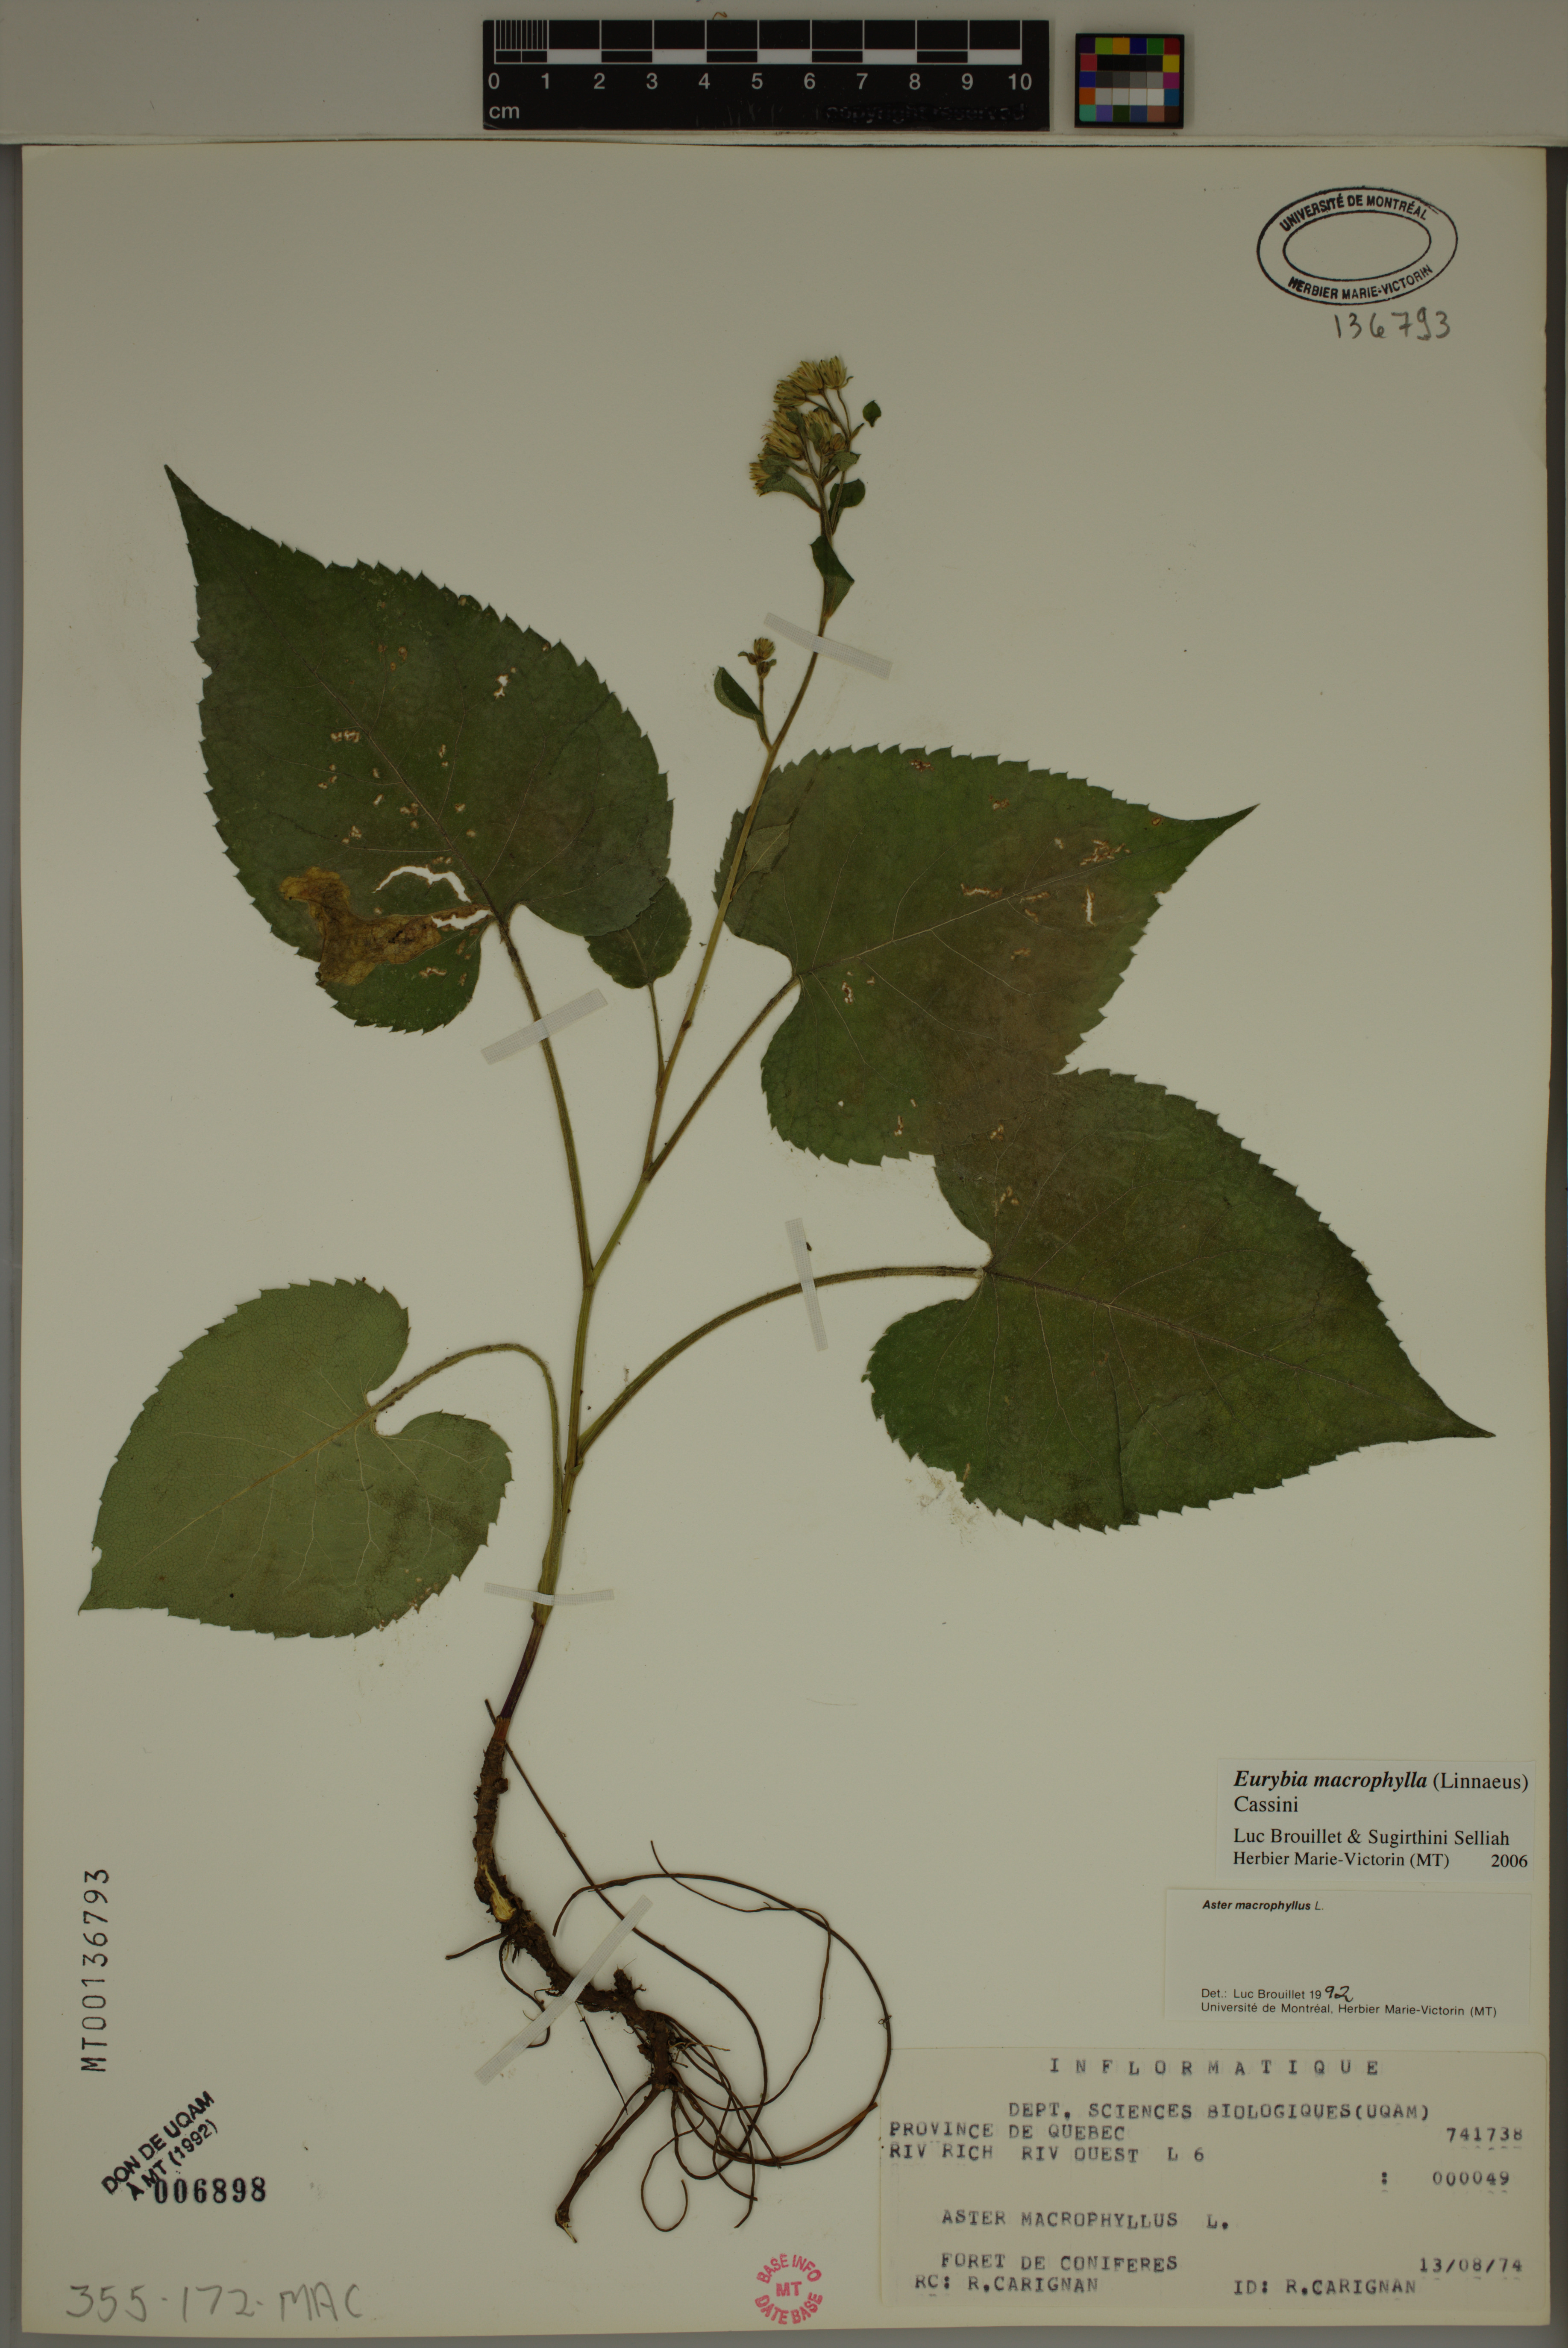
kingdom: Plantae
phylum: Tracheophyta
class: Magnoliopsida
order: Asterales
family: Asteraceae
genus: Eurybia
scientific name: Eurybia macrophylla
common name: Big-leaved aster
